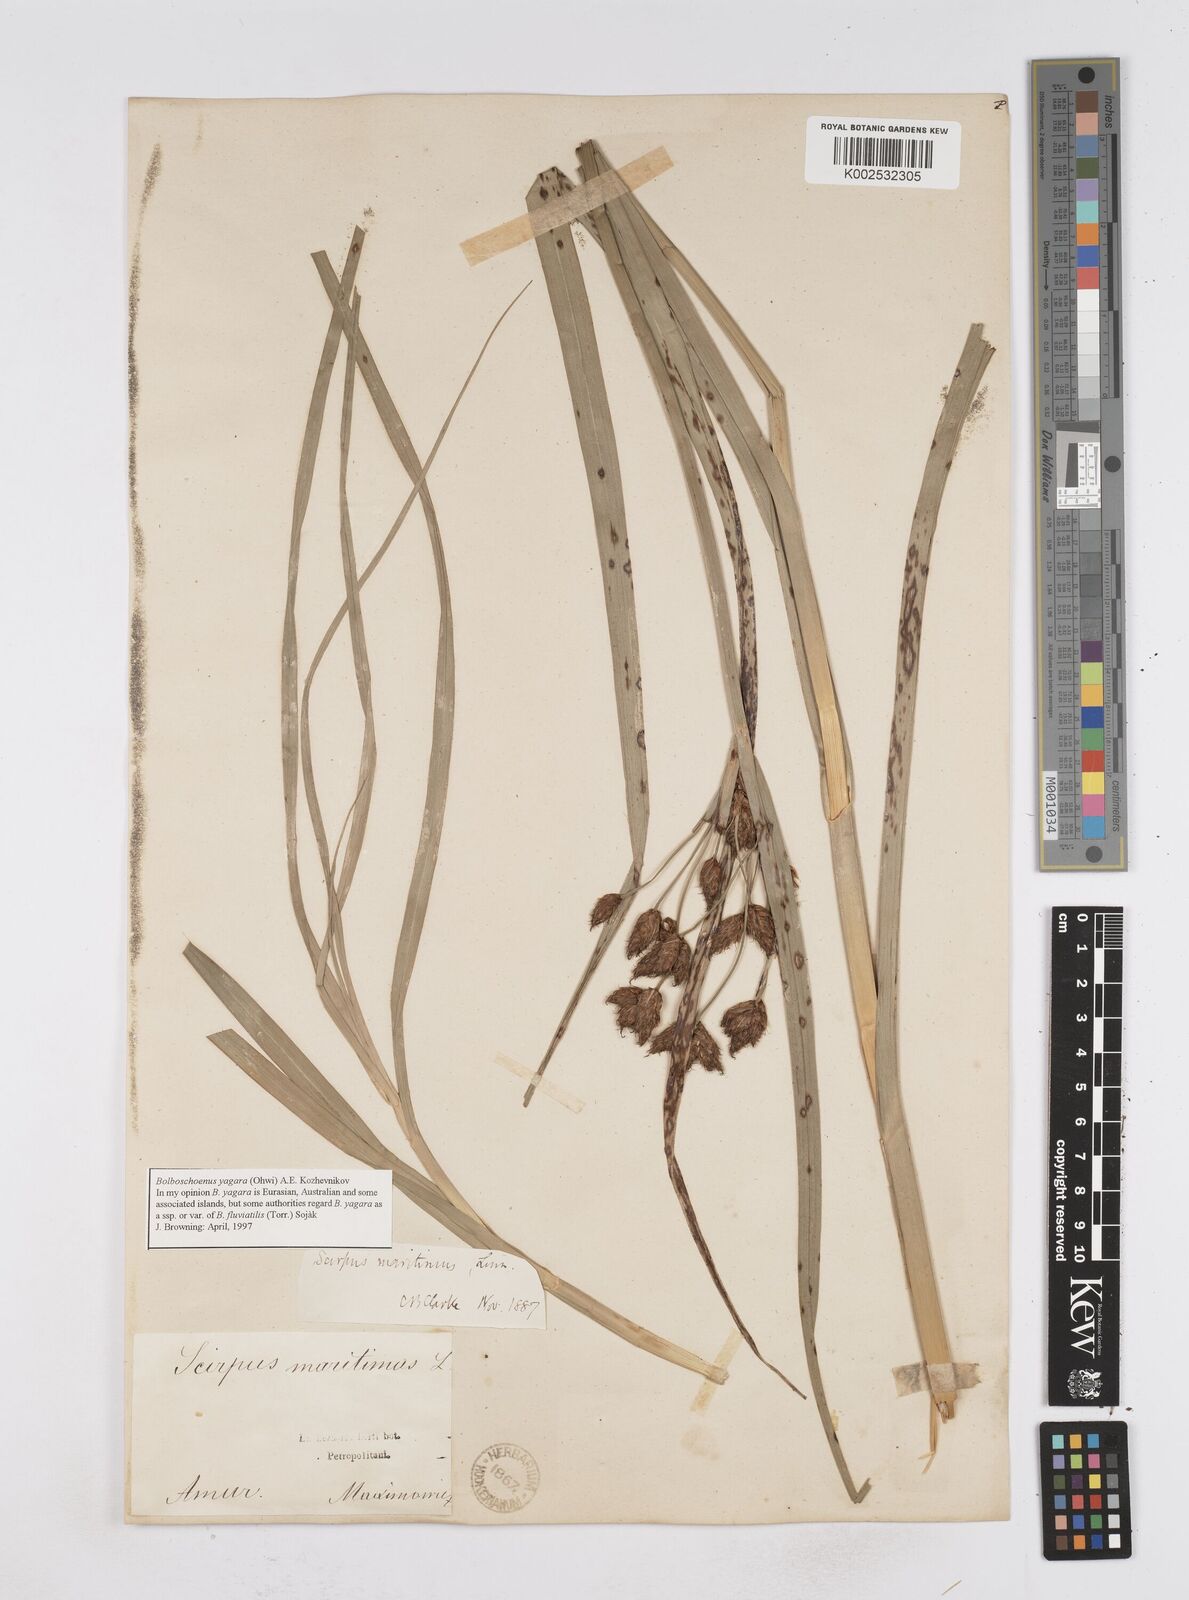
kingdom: Plantae
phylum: Tracheophyta
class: Liliopsida
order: Poales
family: Cyperaceae
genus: Bolboschoenus
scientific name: Bolboschoenus maritimus
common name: Sea club-rush
